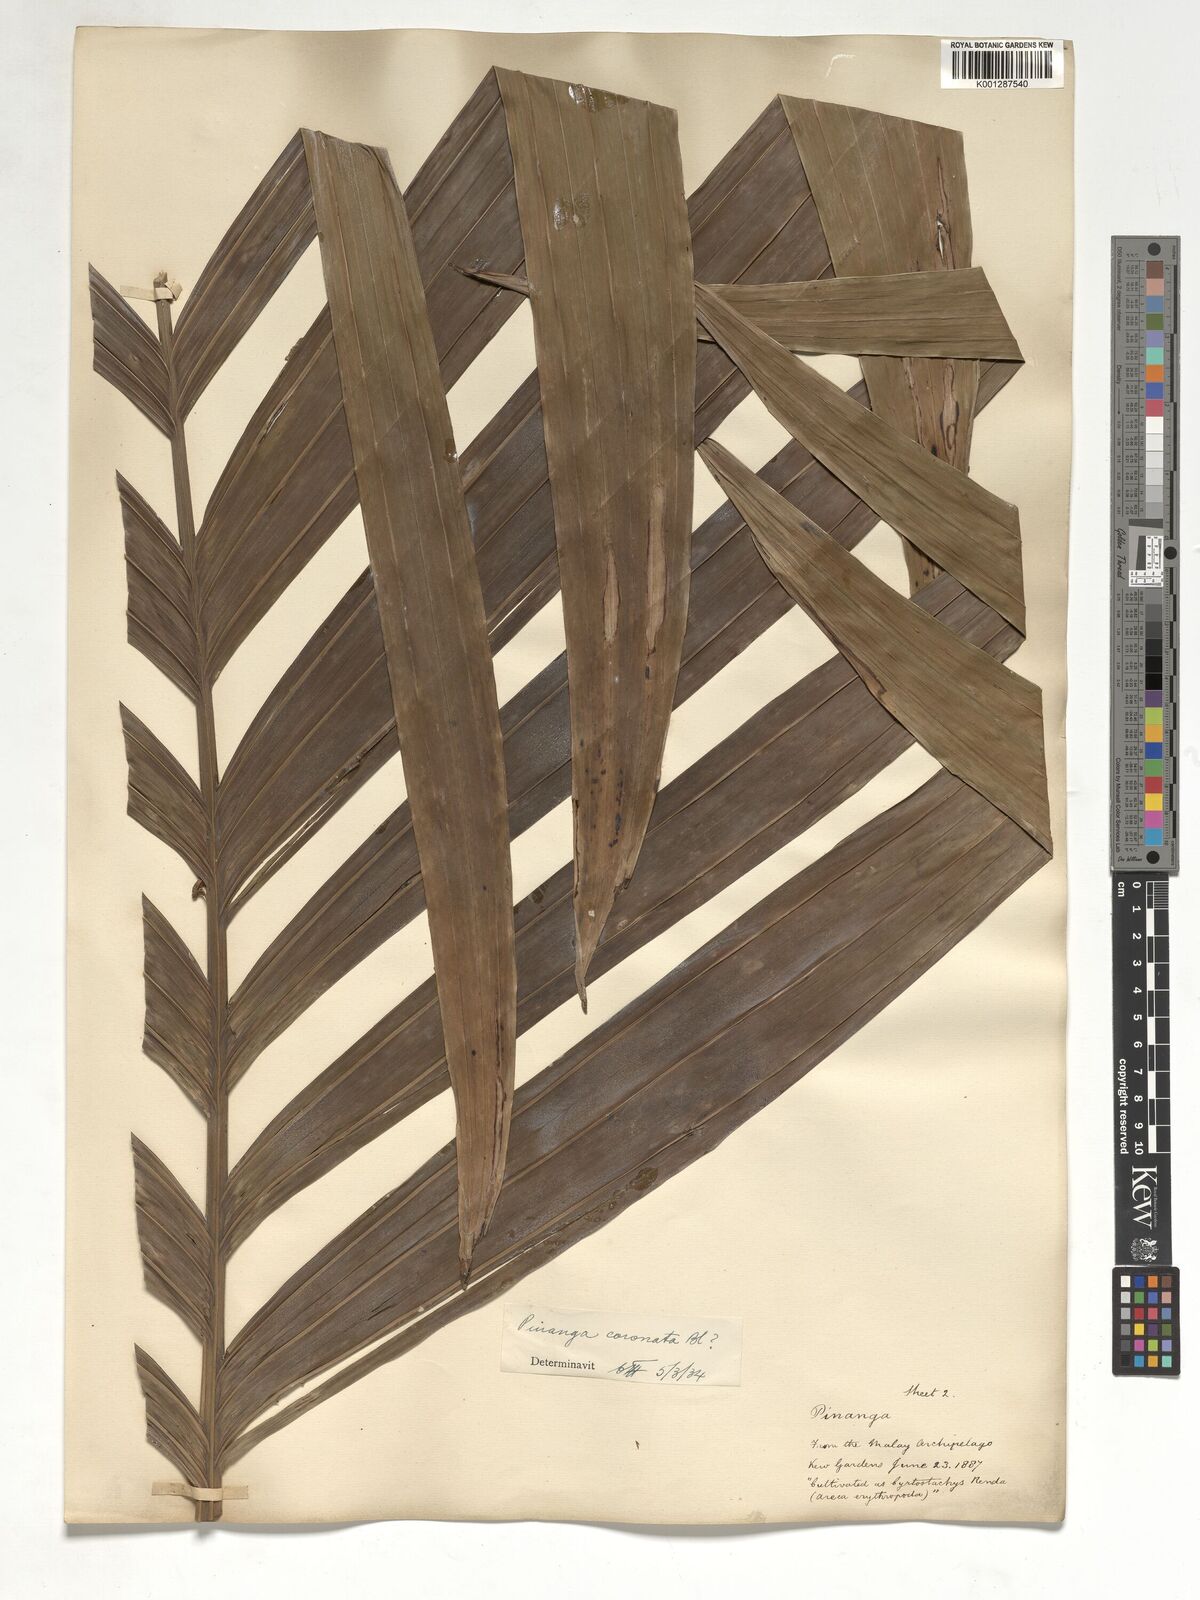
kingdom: Plantae
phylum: Tracheophyta
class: Liliopsida
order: Arecales
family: Arecaceae
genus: Pinanga
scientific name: Pinanga coronata
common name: Ivory cane palm
